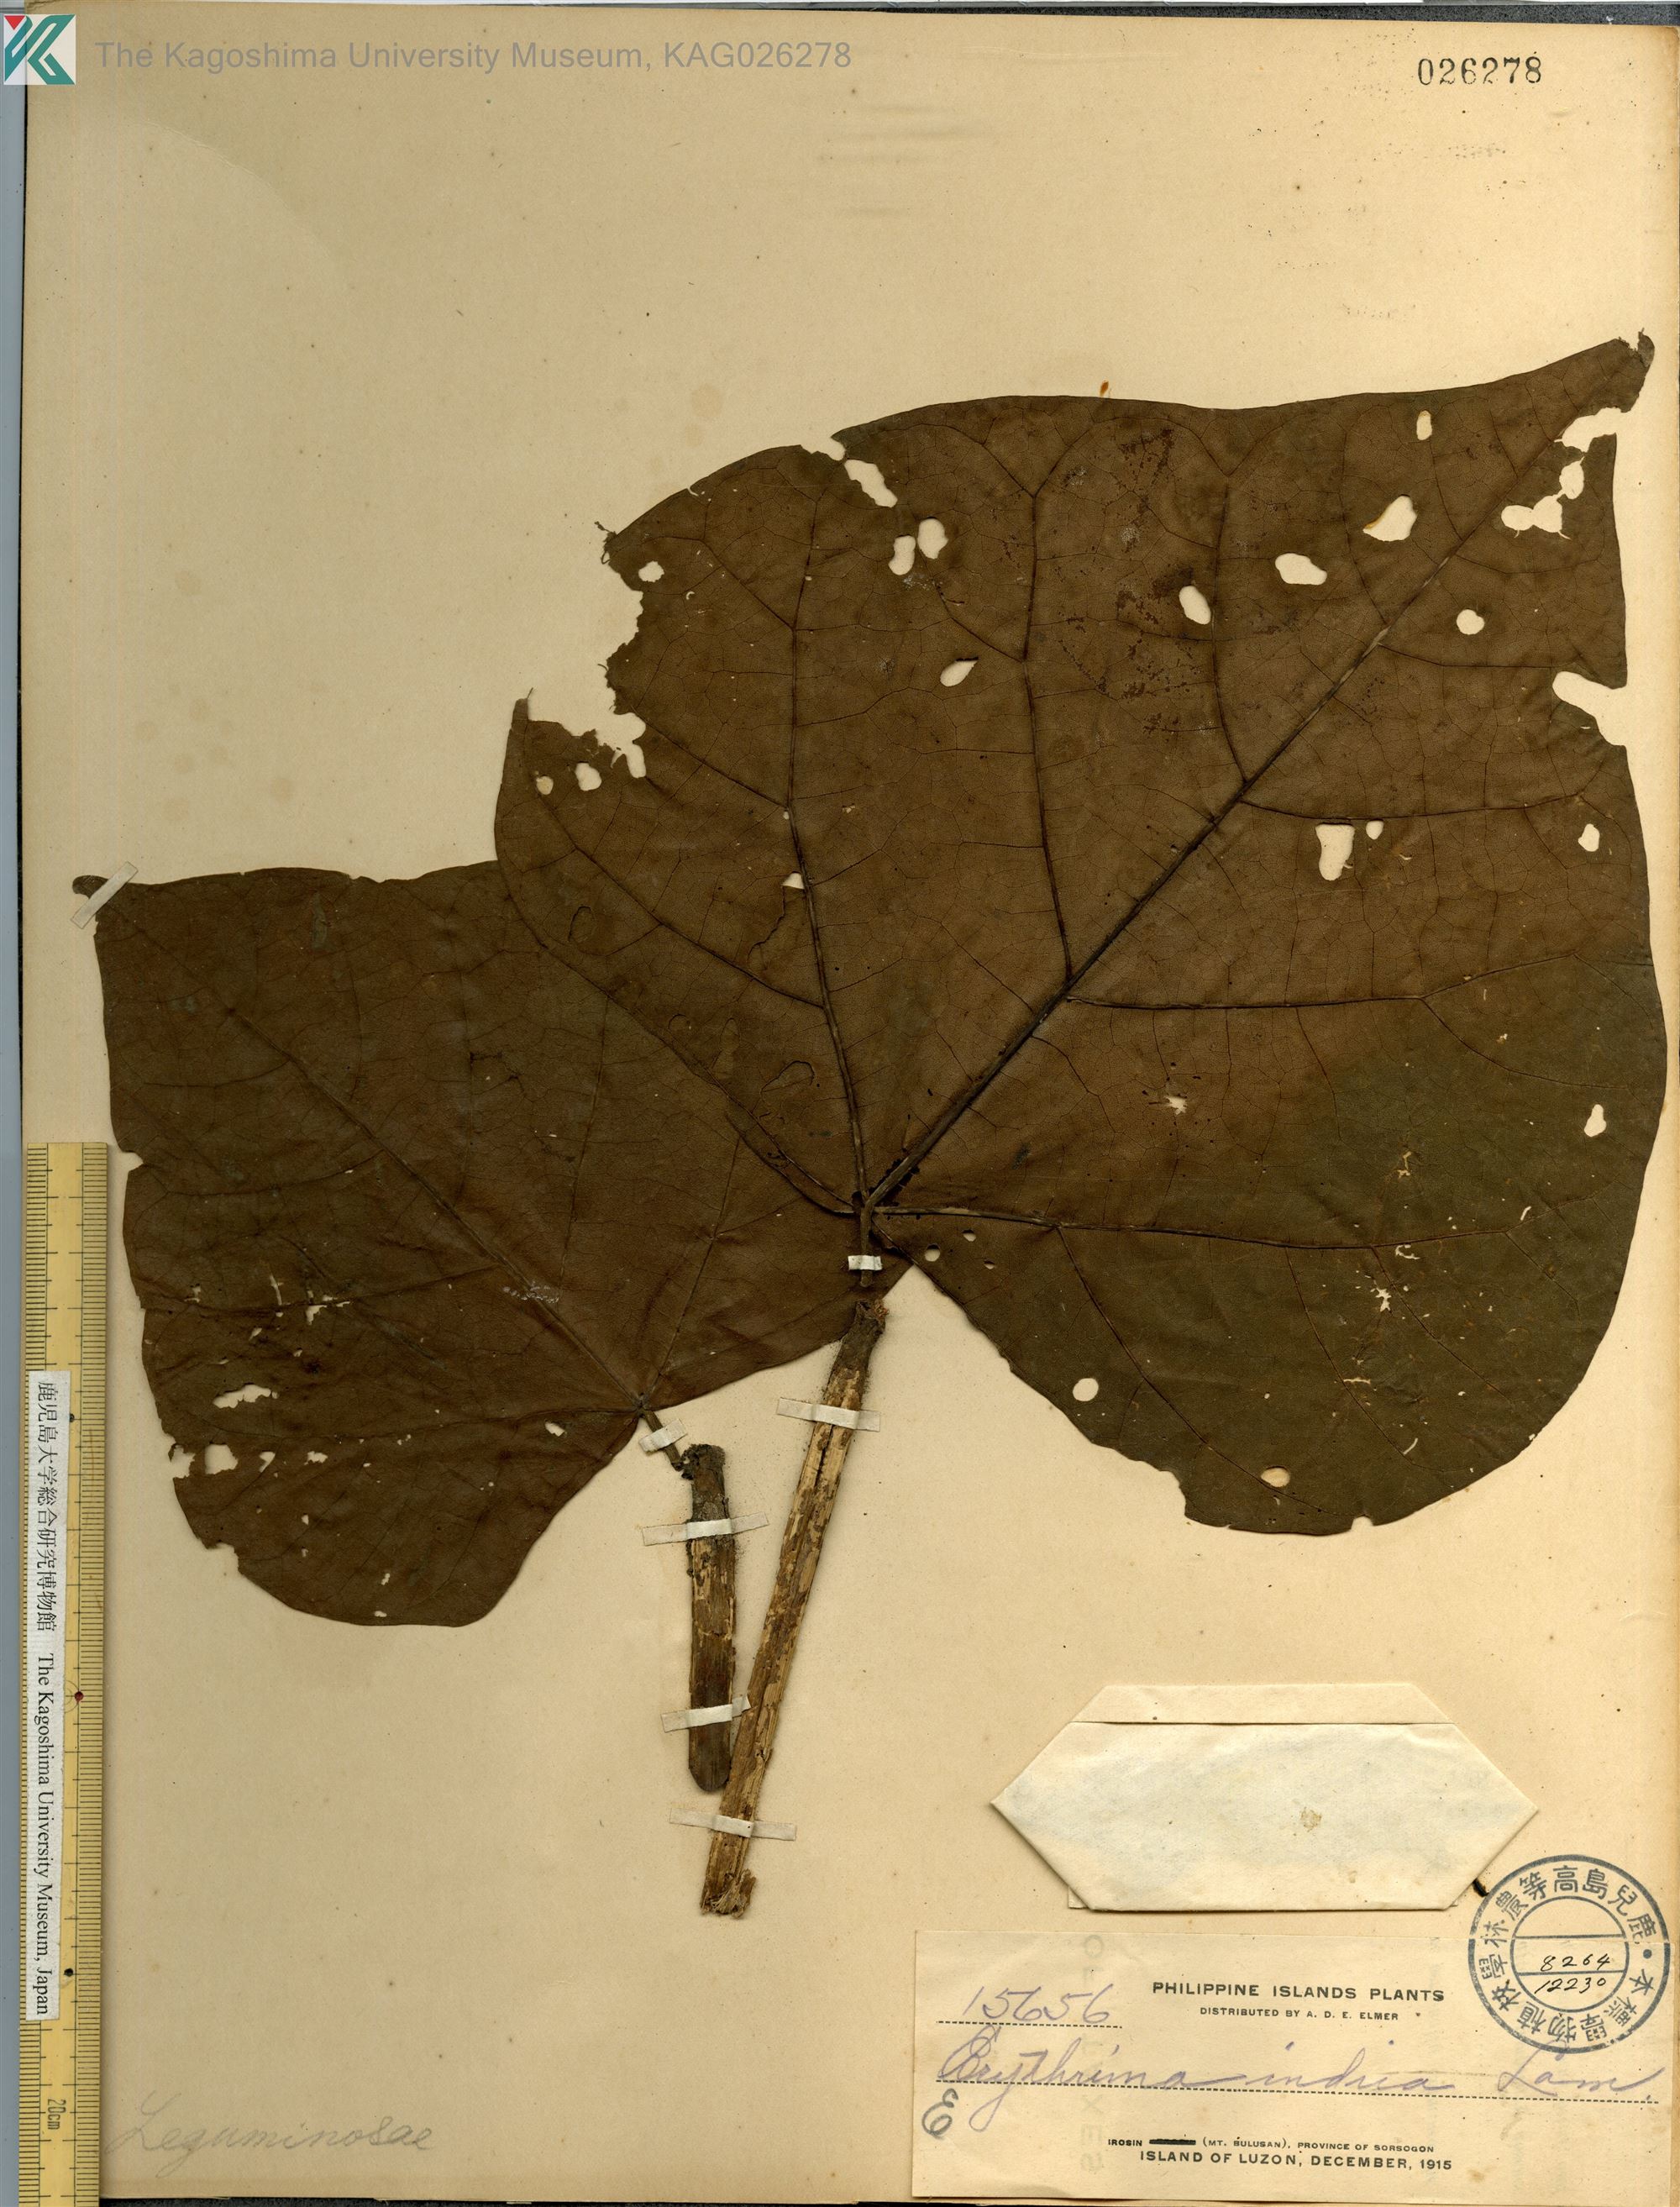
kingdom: Plantae
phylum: Tracheophyta
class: Magnoliopsida
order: Fabales
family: Fabaceae
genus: Erythrina
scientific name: Erythrina variegata
